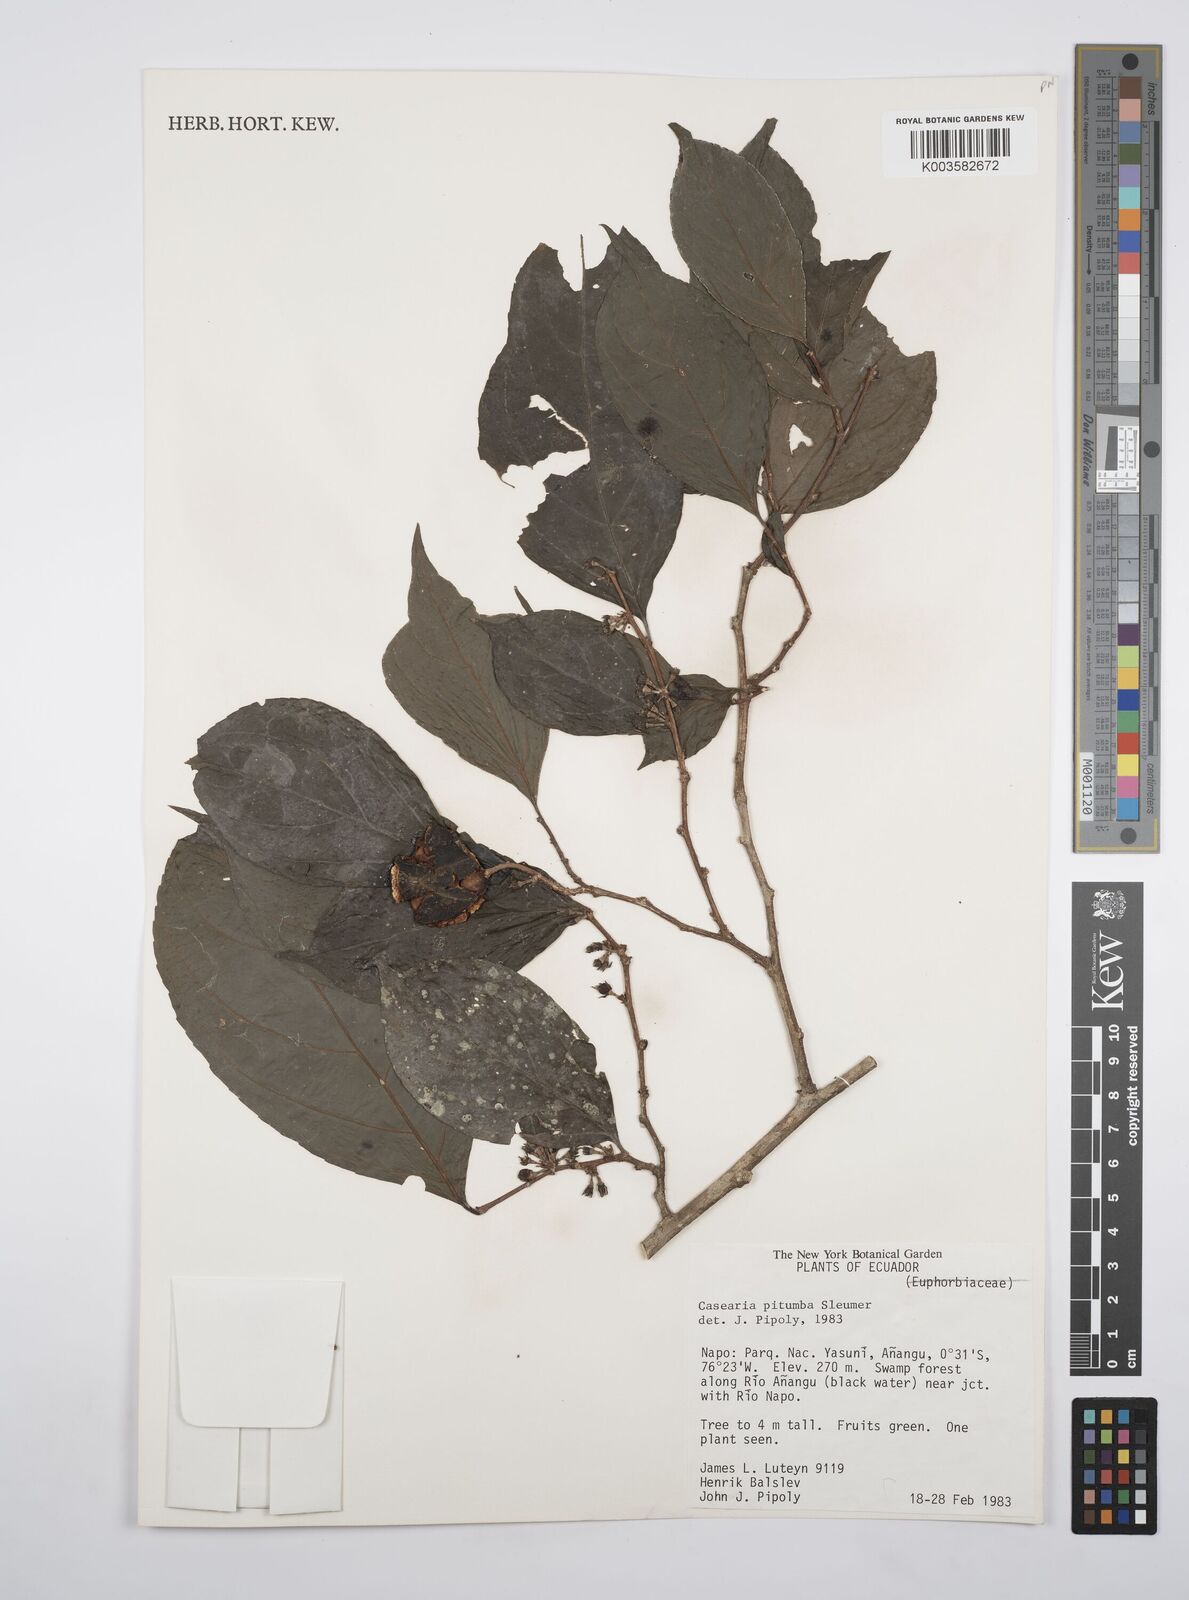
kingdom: Plantae
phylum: Tracheophyta
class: Magnoliopsida
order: Malpighiales
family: Salicaceae
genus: Casearia
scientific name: Casearia pitumba
